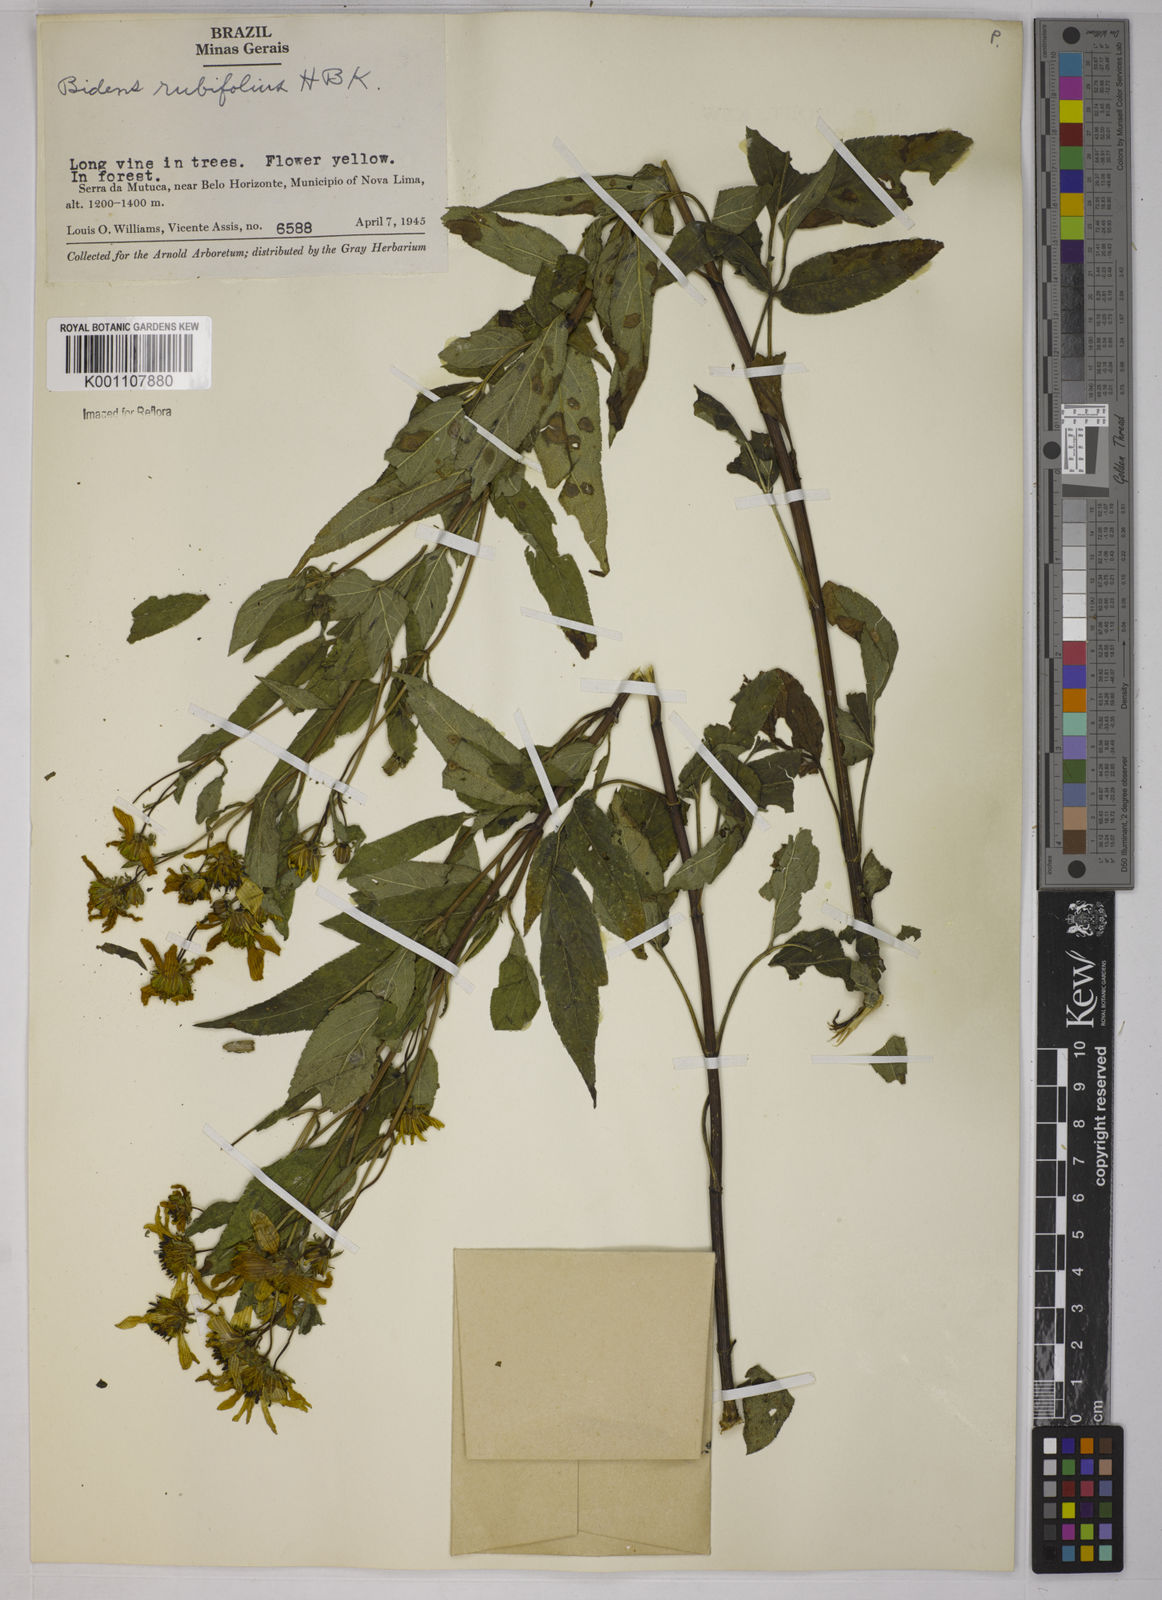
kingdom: Plantae
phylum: Tracheophyta
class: Magnoliopsida
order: Asterales
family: Asteraceae
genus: Bidens
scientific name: Bidens
